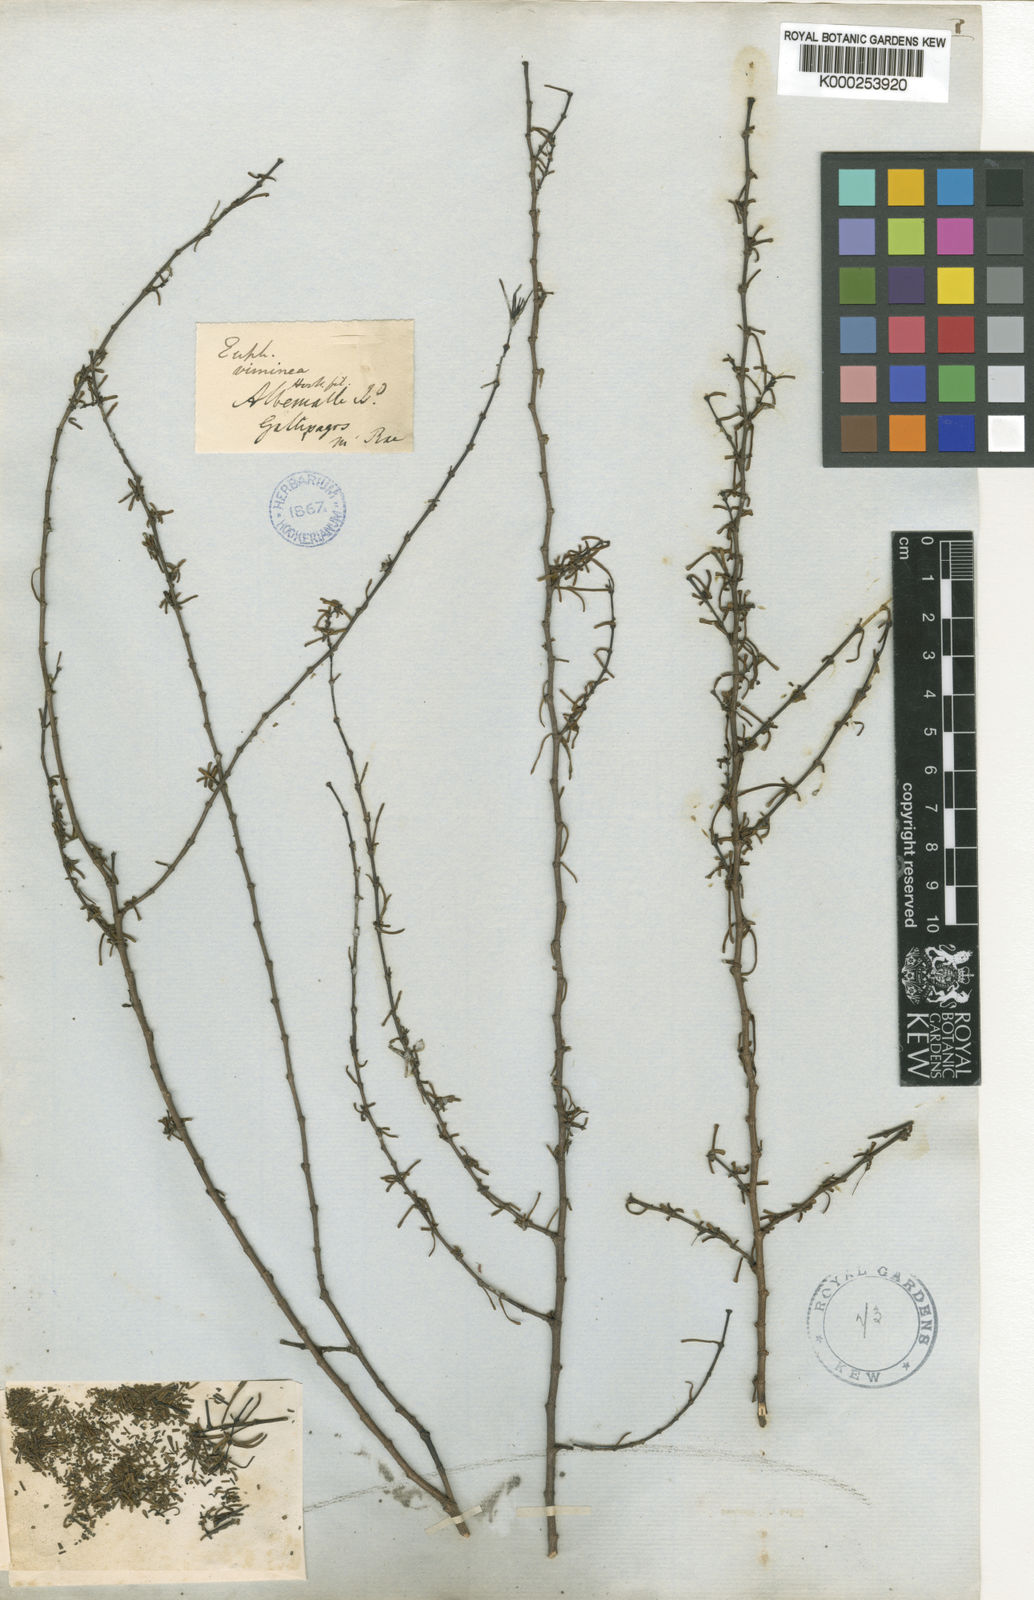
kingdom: Plantae
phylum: Tracheophyta
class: Magnoliopsida
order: Malpighiales
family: Euphorbiaceae
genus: Euphorbia
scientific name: Euphorbia viminea
